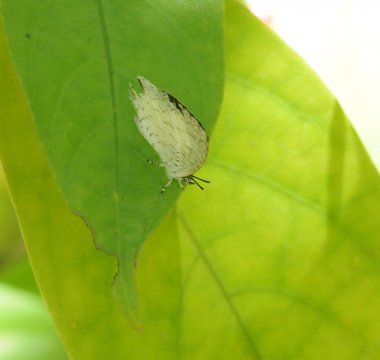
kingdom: Animalia
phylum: Arthropoda
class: Insecta
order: Lepidoptera
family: Lycaenidae
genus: Spalgis
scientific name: Spalgis lemolea
